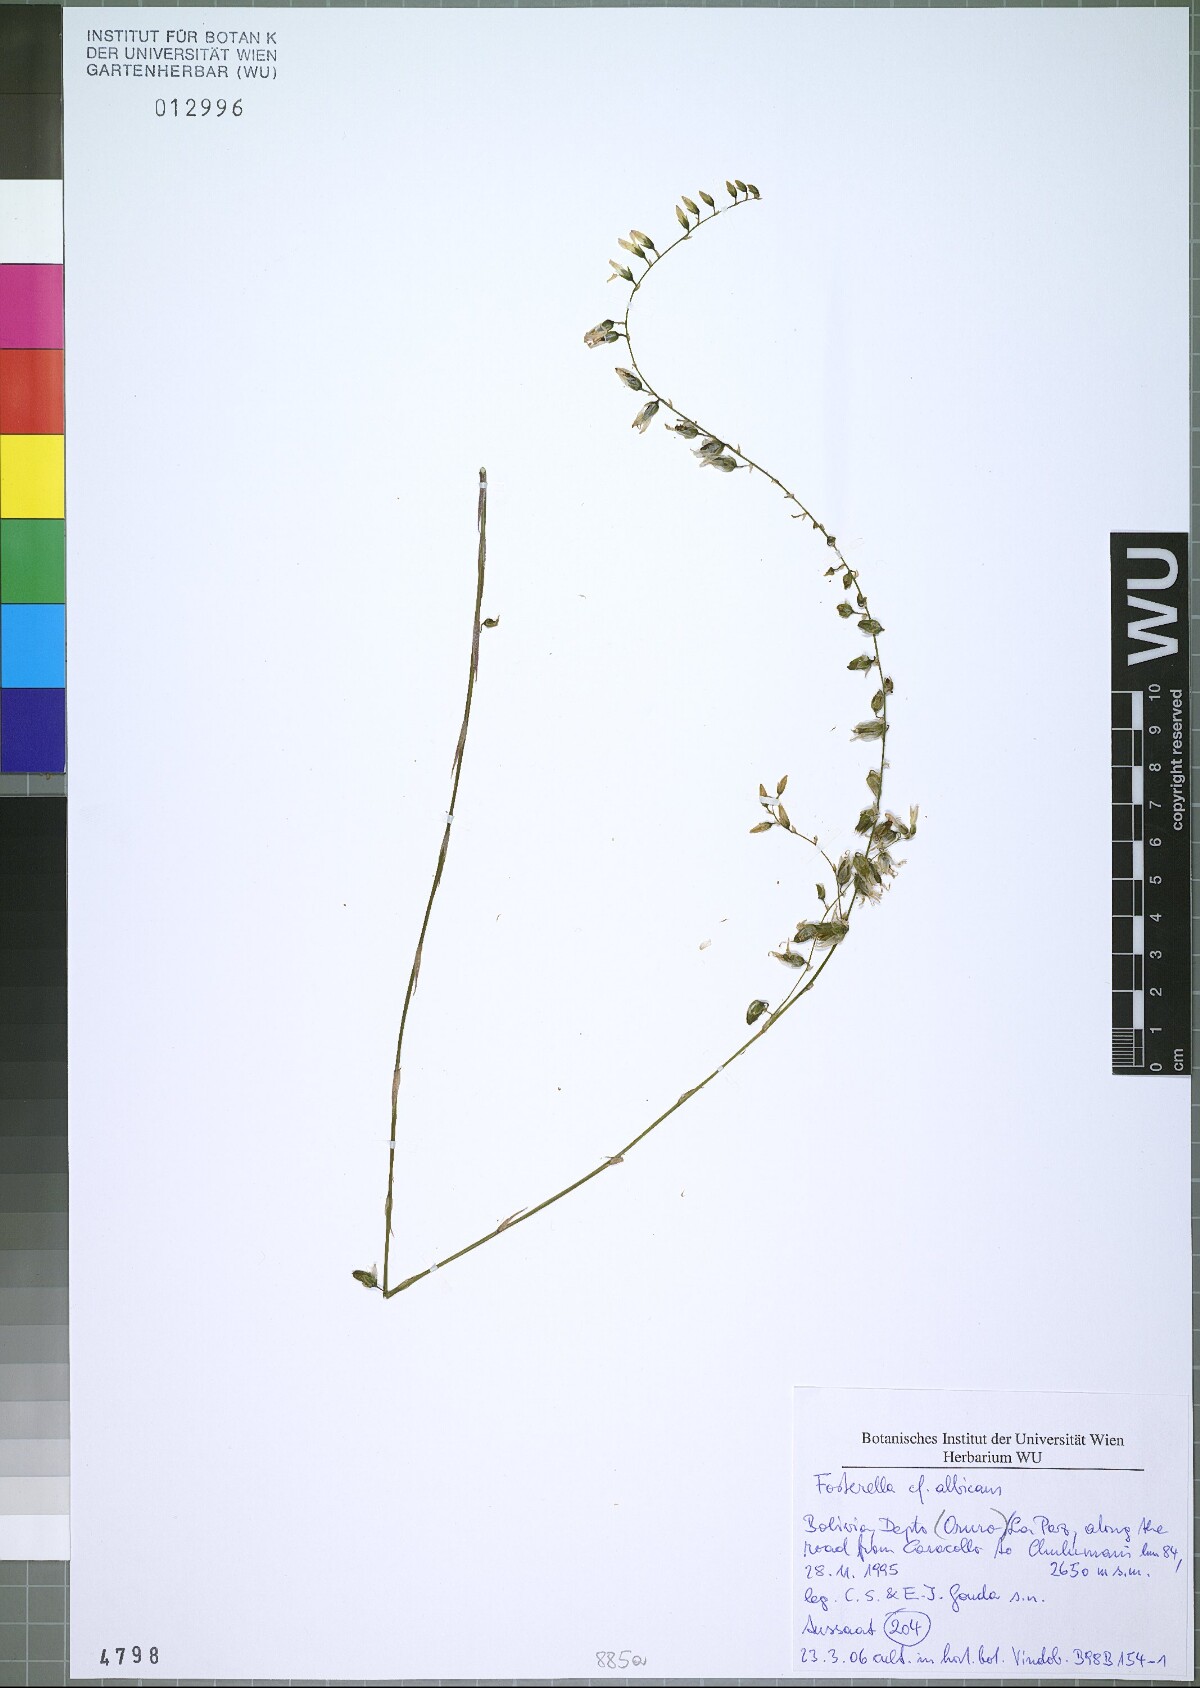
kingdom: Plantae
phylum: Tracheophyta
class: Liliopsida
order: Poales
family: Bromeliaceae
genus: Fosterella
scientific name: Fosterella albicans
